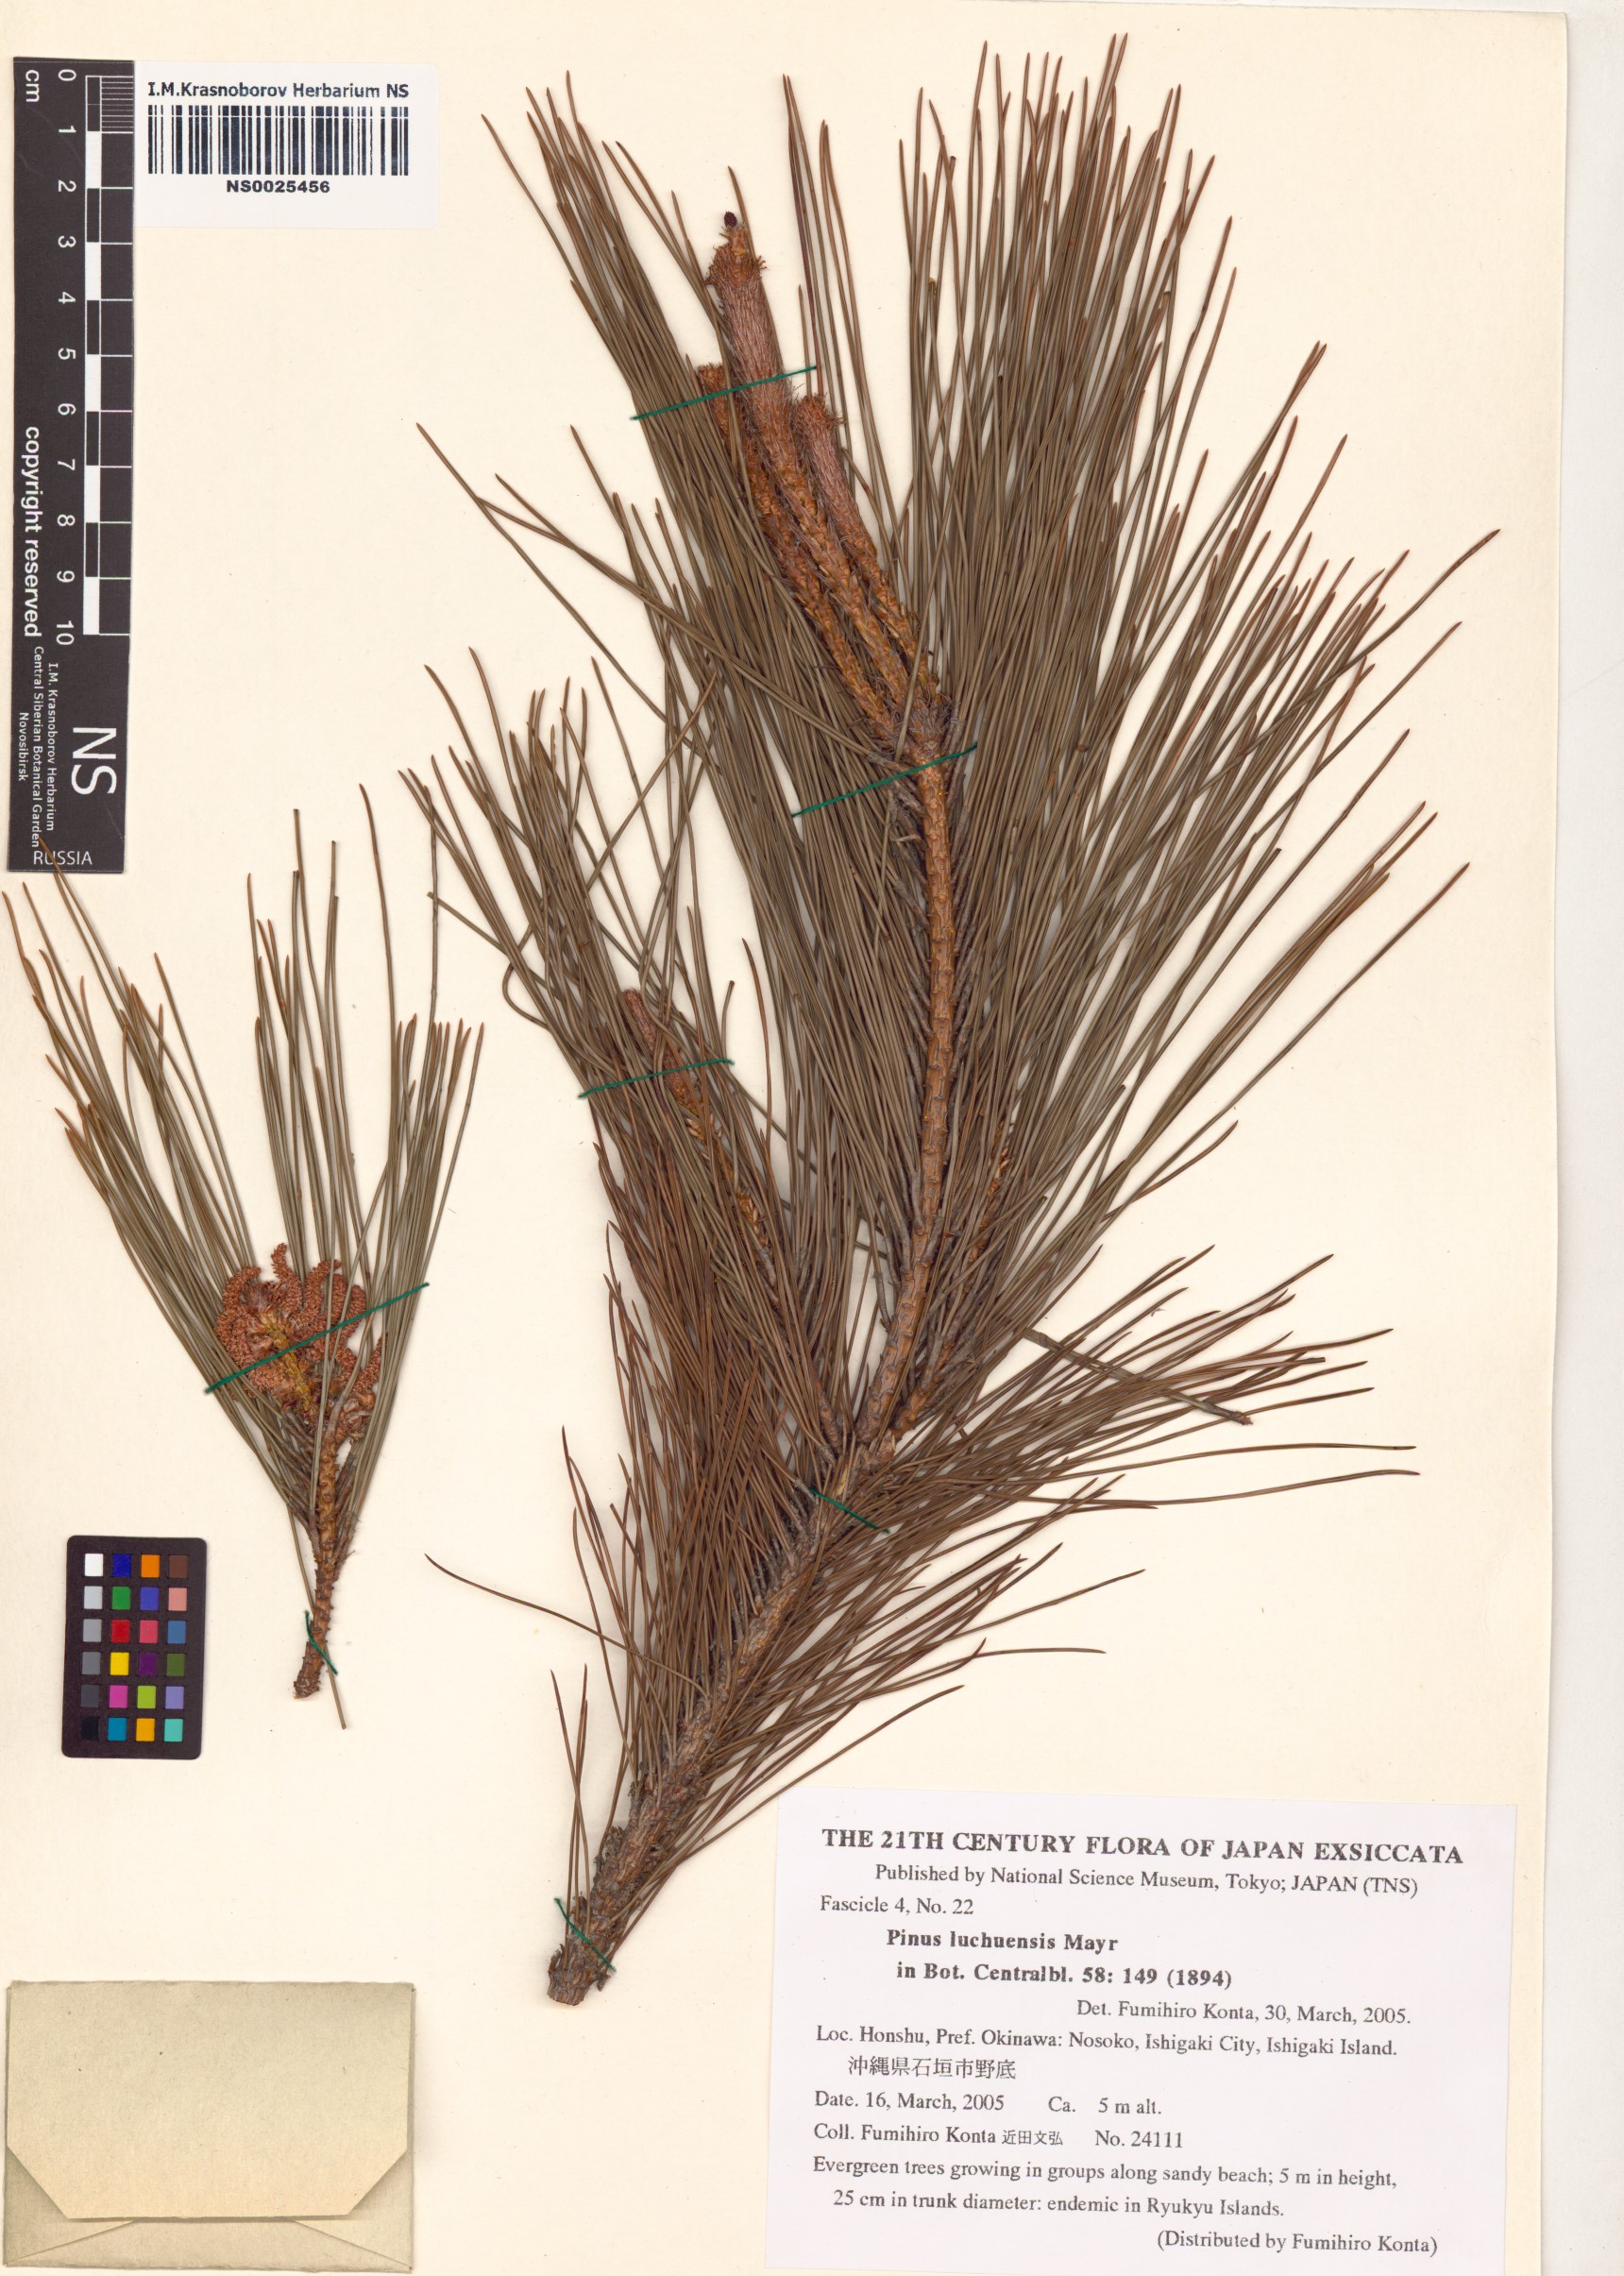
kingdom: Plantae
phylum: Tracheophyta
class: Pinopsida
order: Pinales
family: Pinaceae
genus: Pinus
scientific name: Pinus luchuensis
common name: Luchu pine
